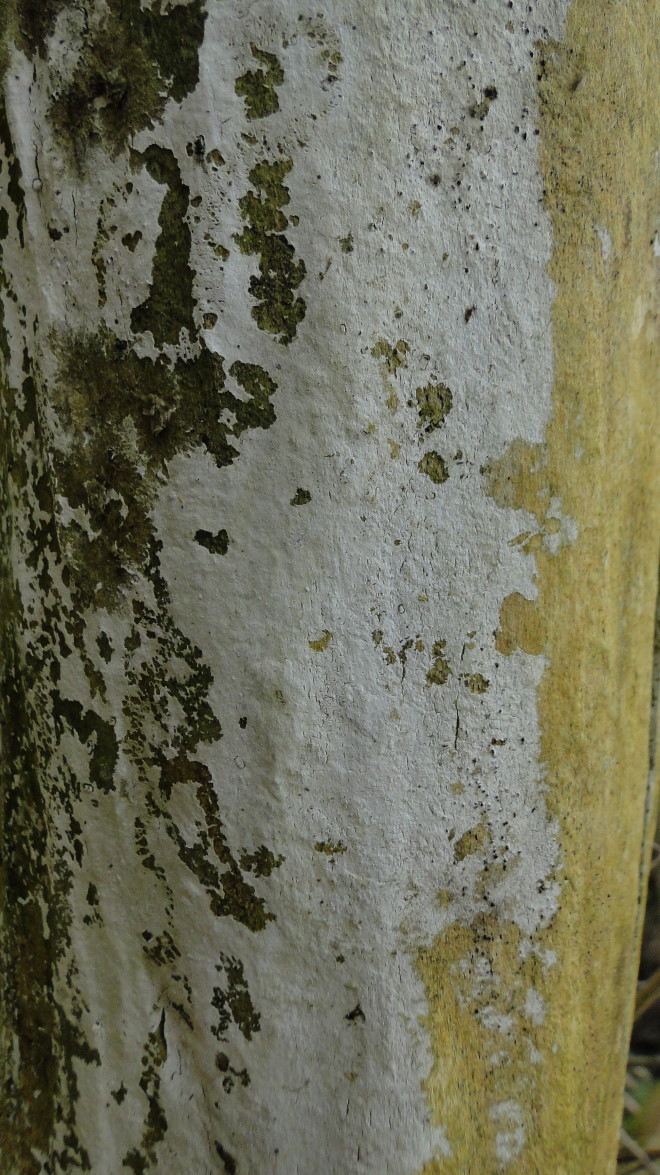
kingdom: Fungi
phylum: Basidiomycota
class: Agaricomycetes
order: Corticiales
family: Corticiaceae
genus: Lyomyces
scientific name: Lyomyces sambuci
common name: almindelig hyldehinde
